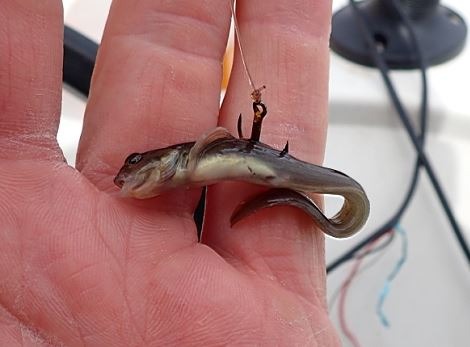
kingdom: Animalia
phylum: Chordata
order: Perciformes
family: Zoarcidae
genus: Zoarces
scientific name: Zoarces viviparus
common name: Ålekvabbe
